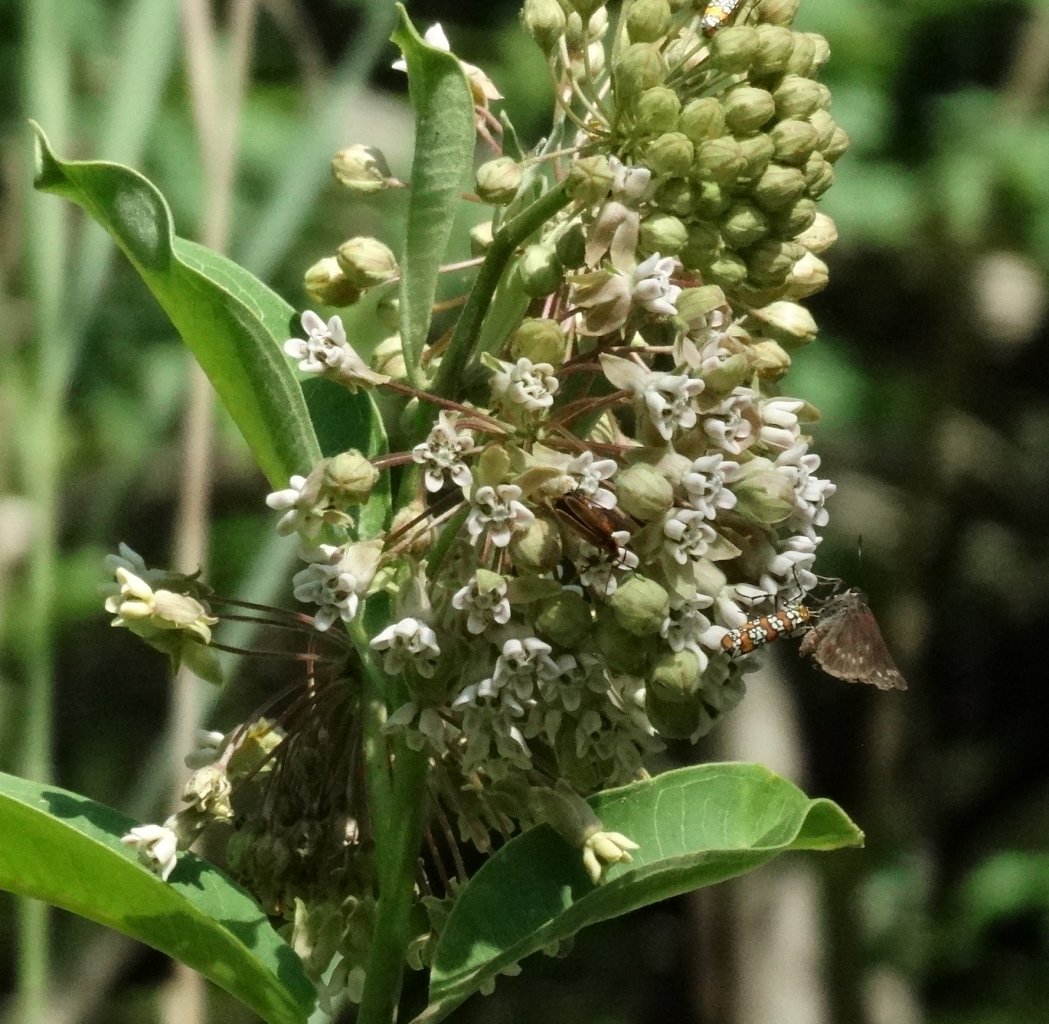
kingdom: Animalia
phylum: Arthropoda
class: Insecta
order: Lepidoptera
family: Hesperiidae
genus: Vernia
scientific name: Vernia verna
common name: Little Glassywing
